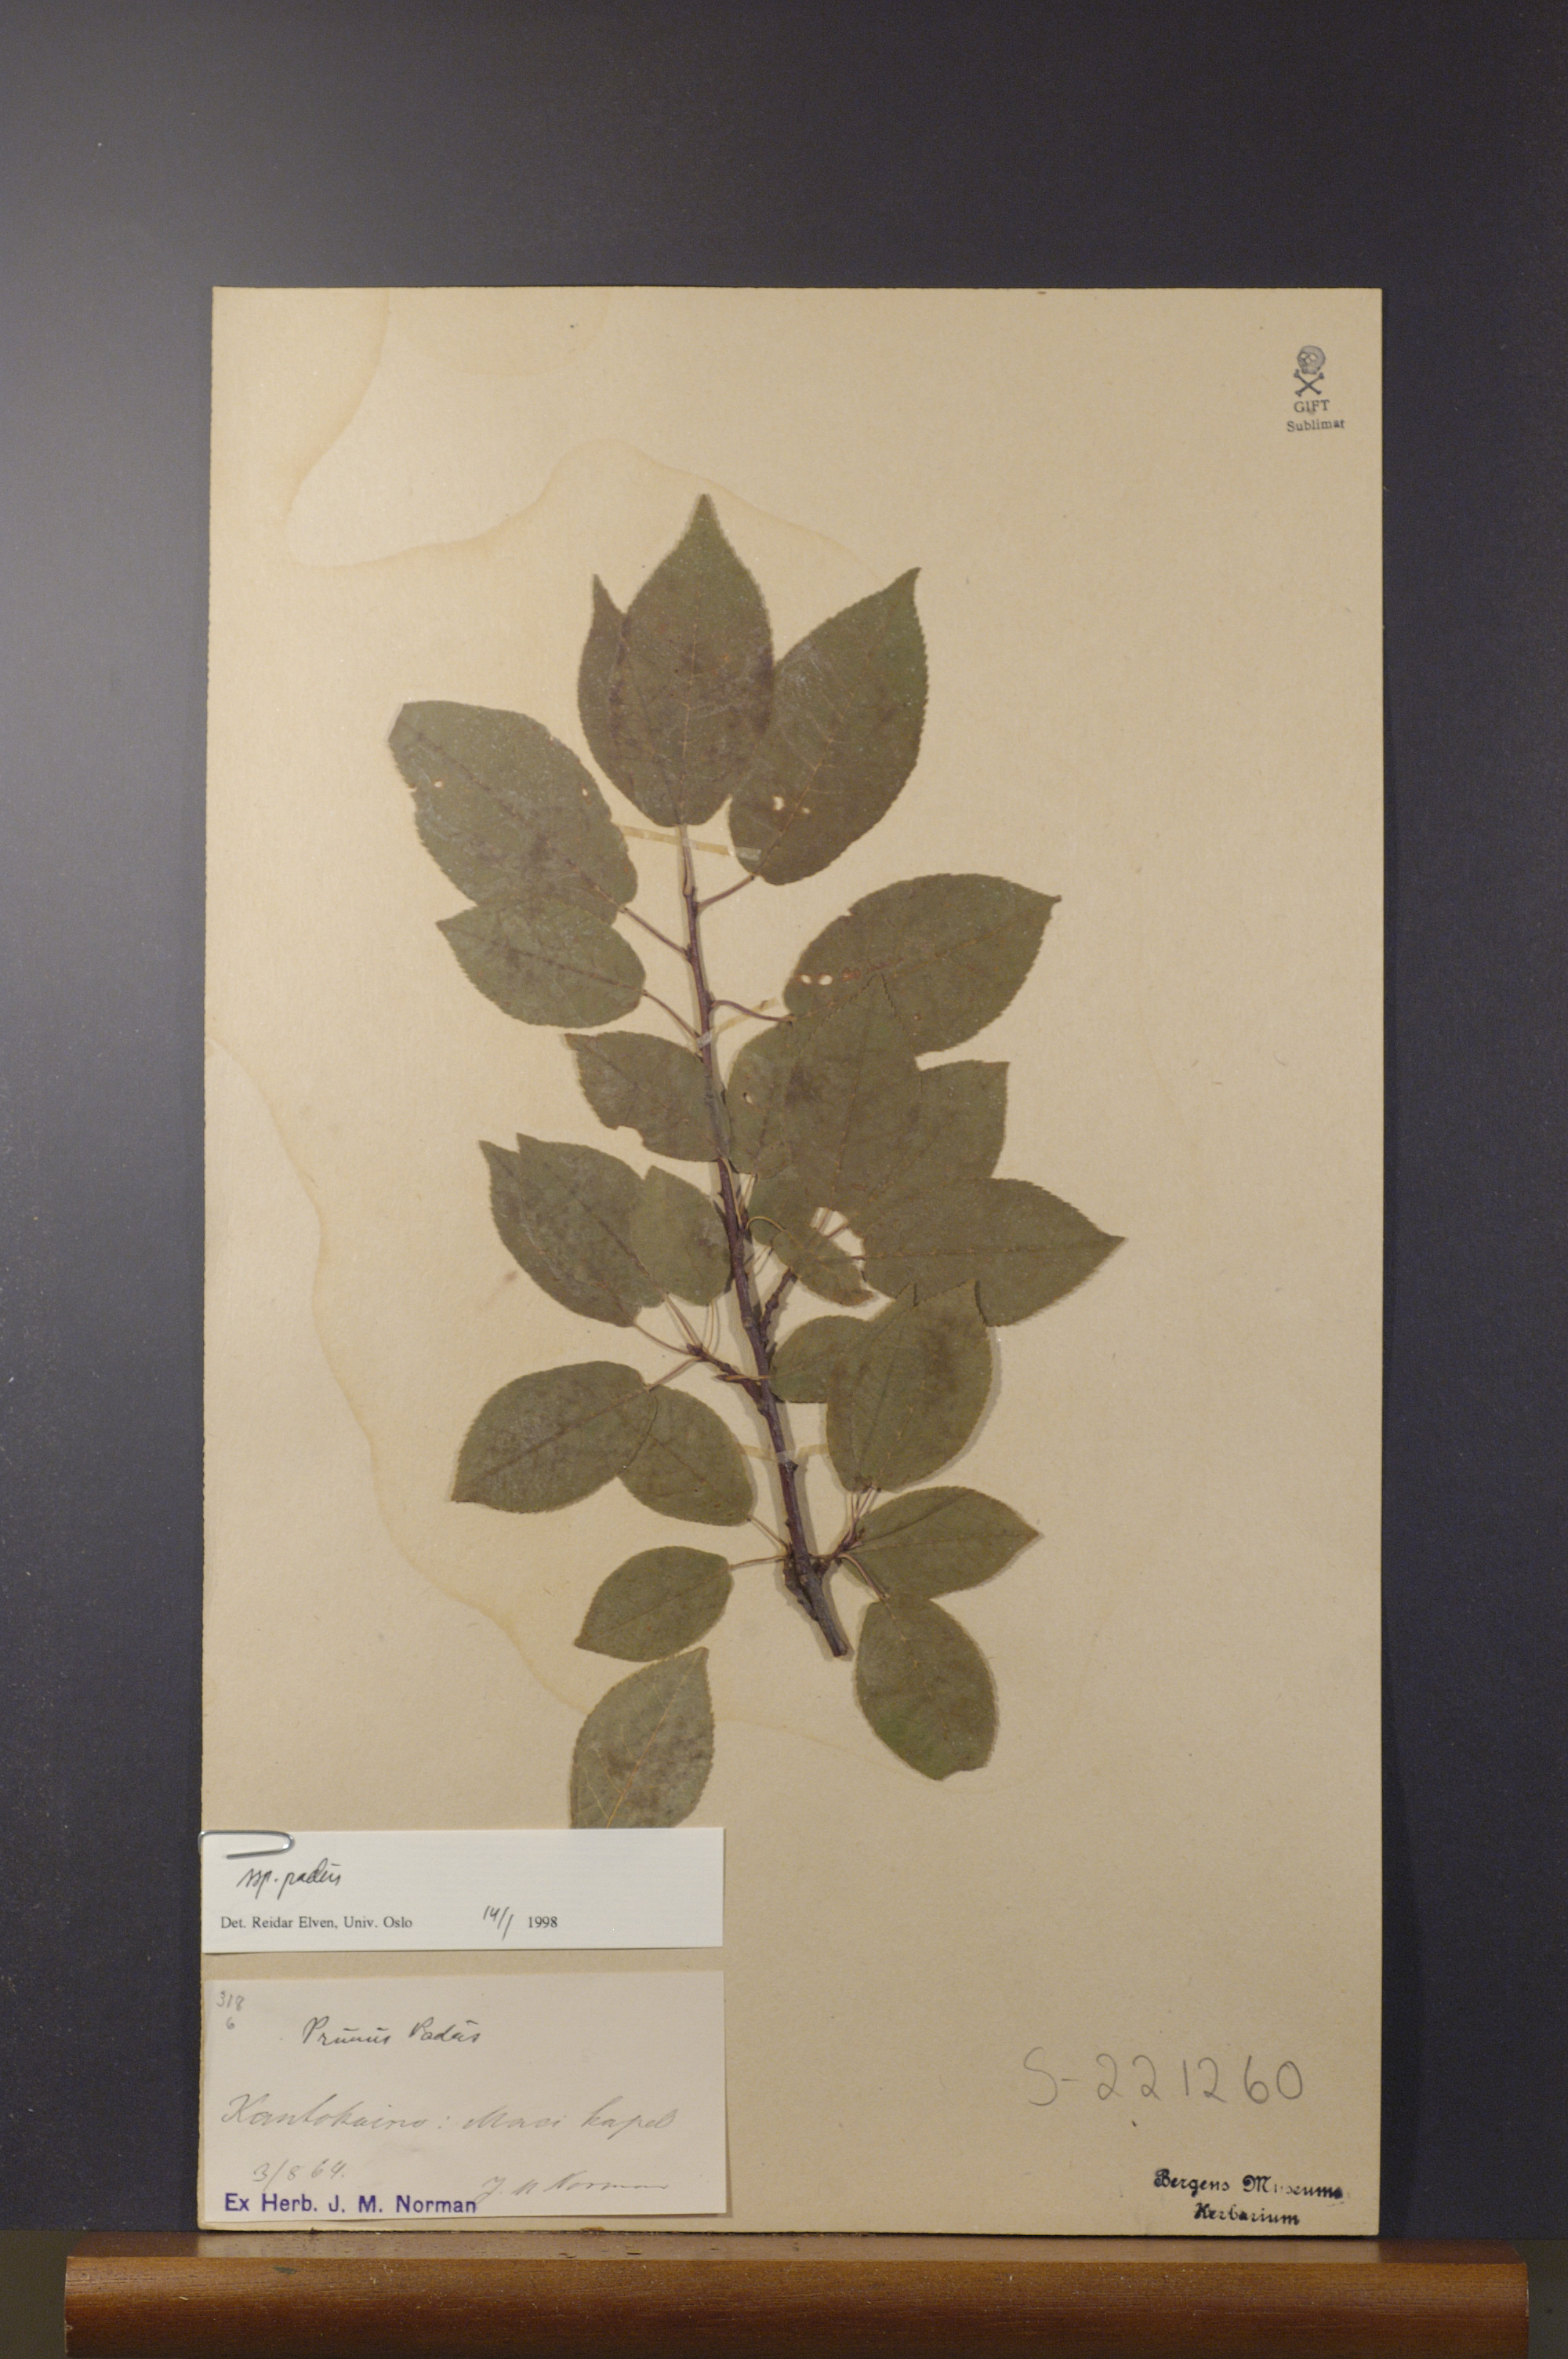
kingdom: Plantae
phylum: Tracheophyta
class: Magnoliopsida
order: Rosales
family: Rosaceae
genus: Prunus
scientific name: Prunus padus
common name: Bird cherry
